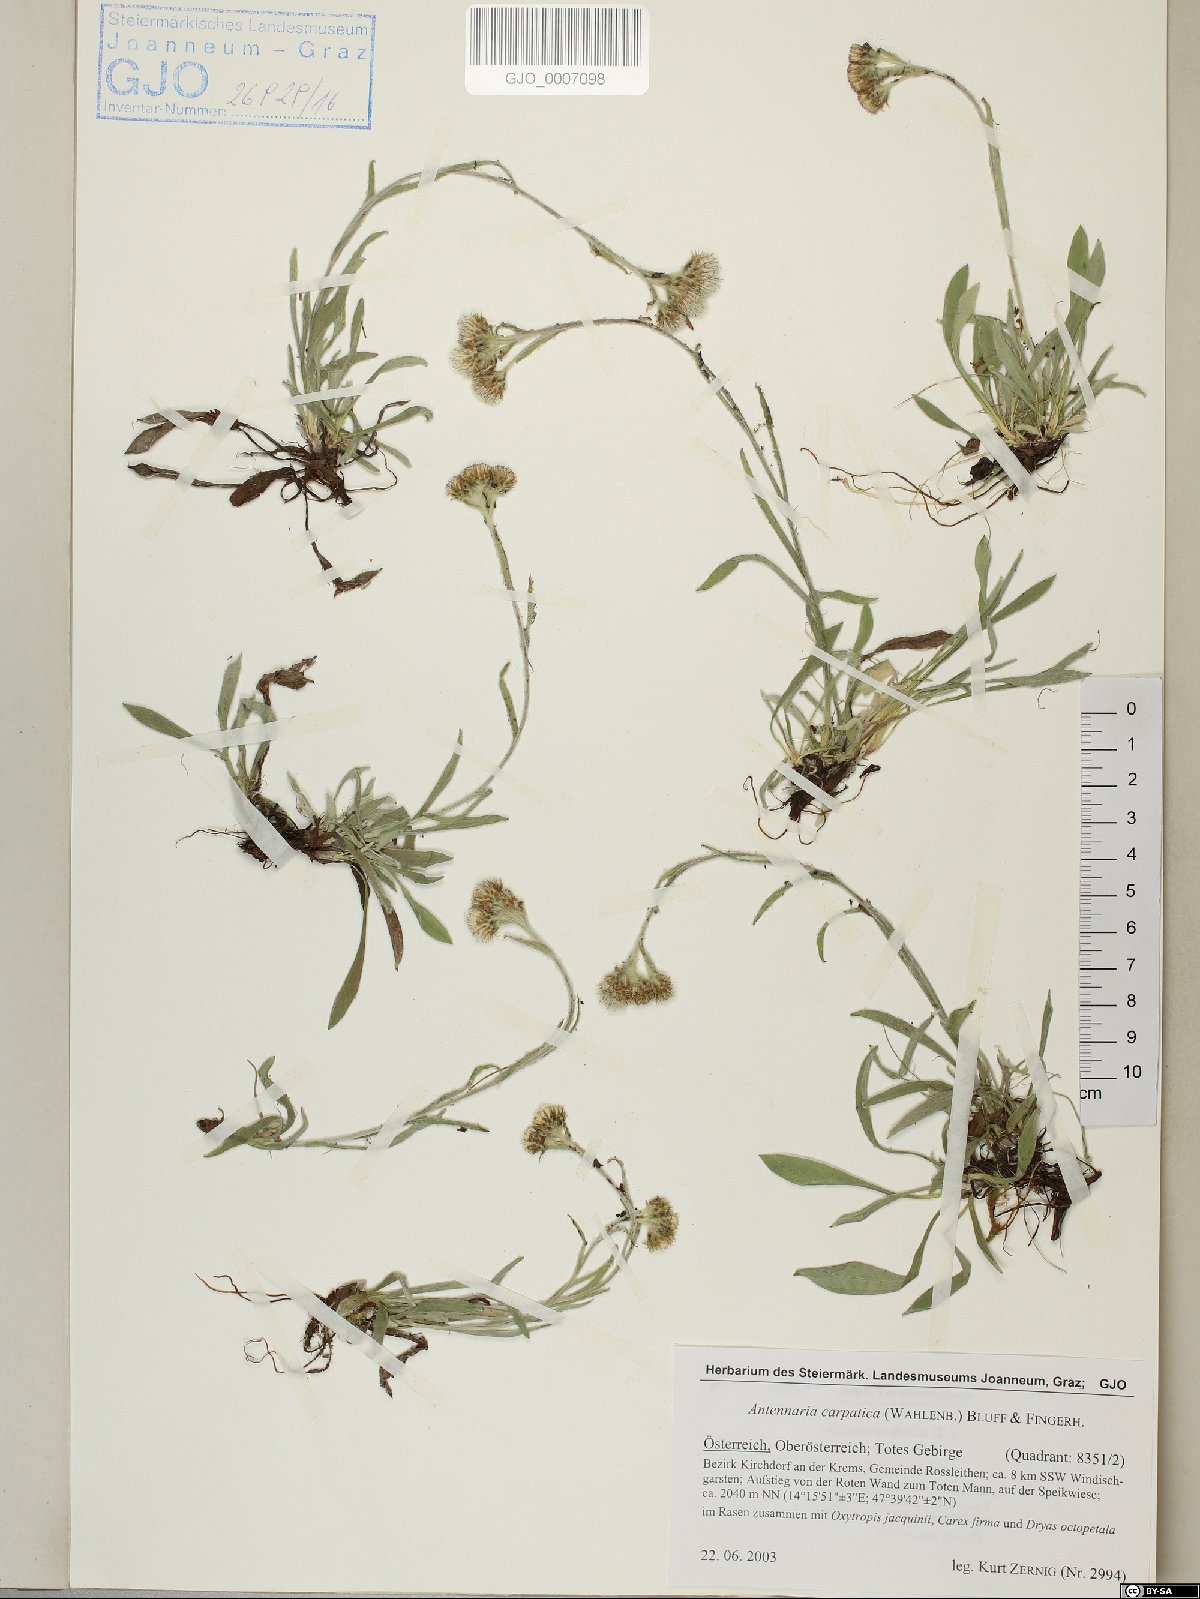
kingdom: Plantae
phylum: Tracheophyta
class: Magnoliopsida
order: Asterales
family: Asteraceae
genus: Antennaria
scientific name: Antennaria carpatica
